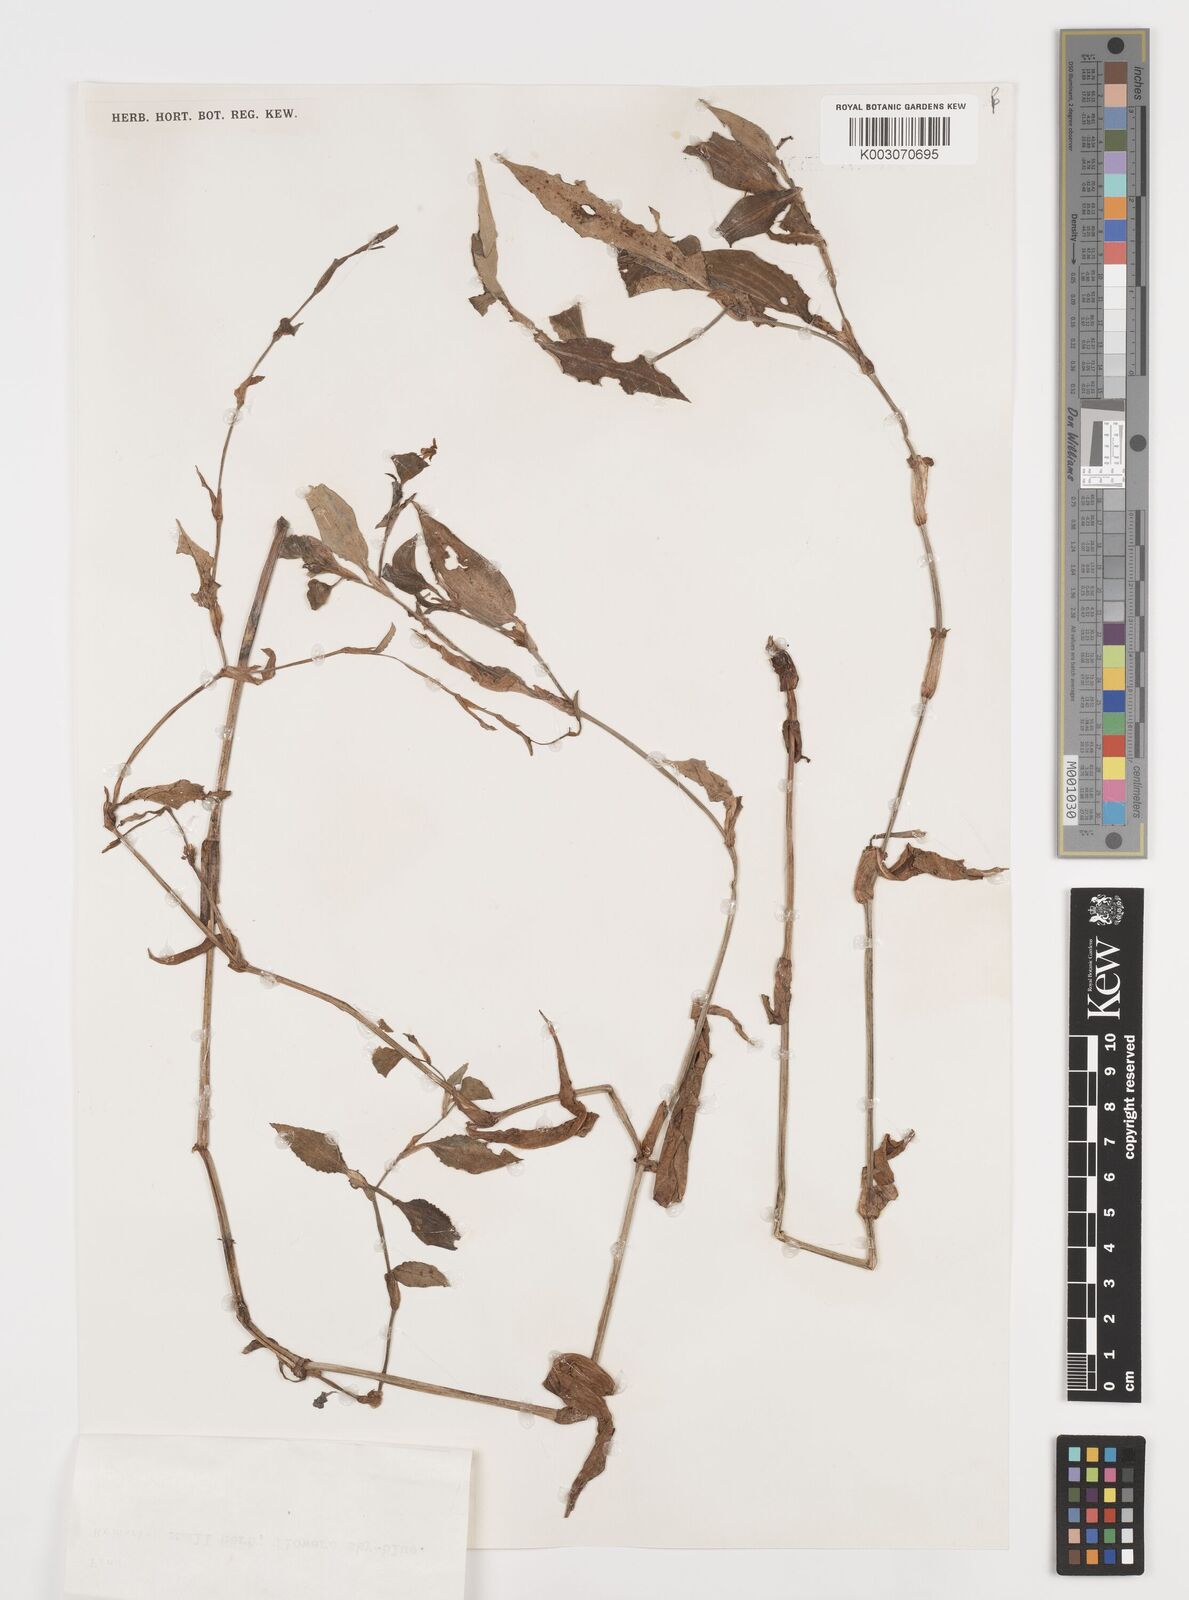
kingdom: Plantae
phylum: Tracheophyta
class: Liliopsida
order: Commelinales
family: Commelinaceae
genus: Commelina
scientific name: Commelina auriculata
